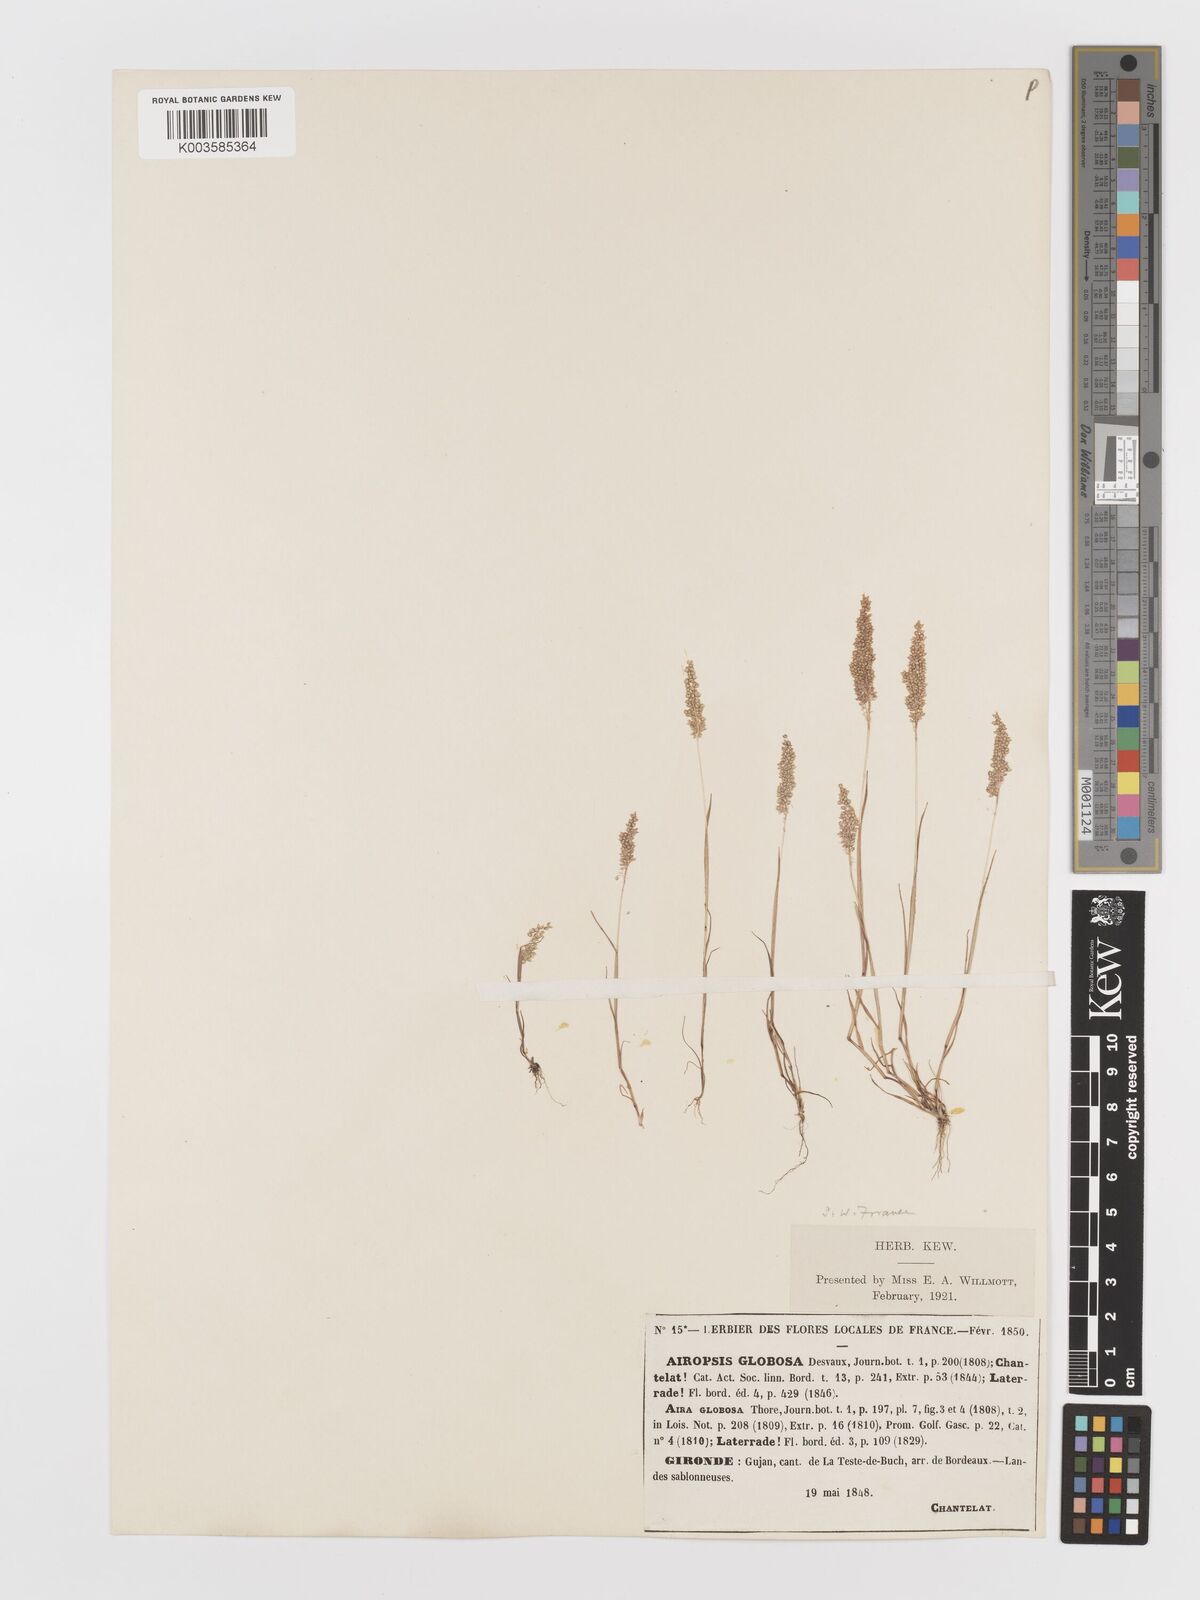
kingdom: Plantae
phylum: Tracheophyta
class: Liliopsida
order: Poales
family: Poaceae
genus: Airopsis
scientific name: Airopsis tenella
